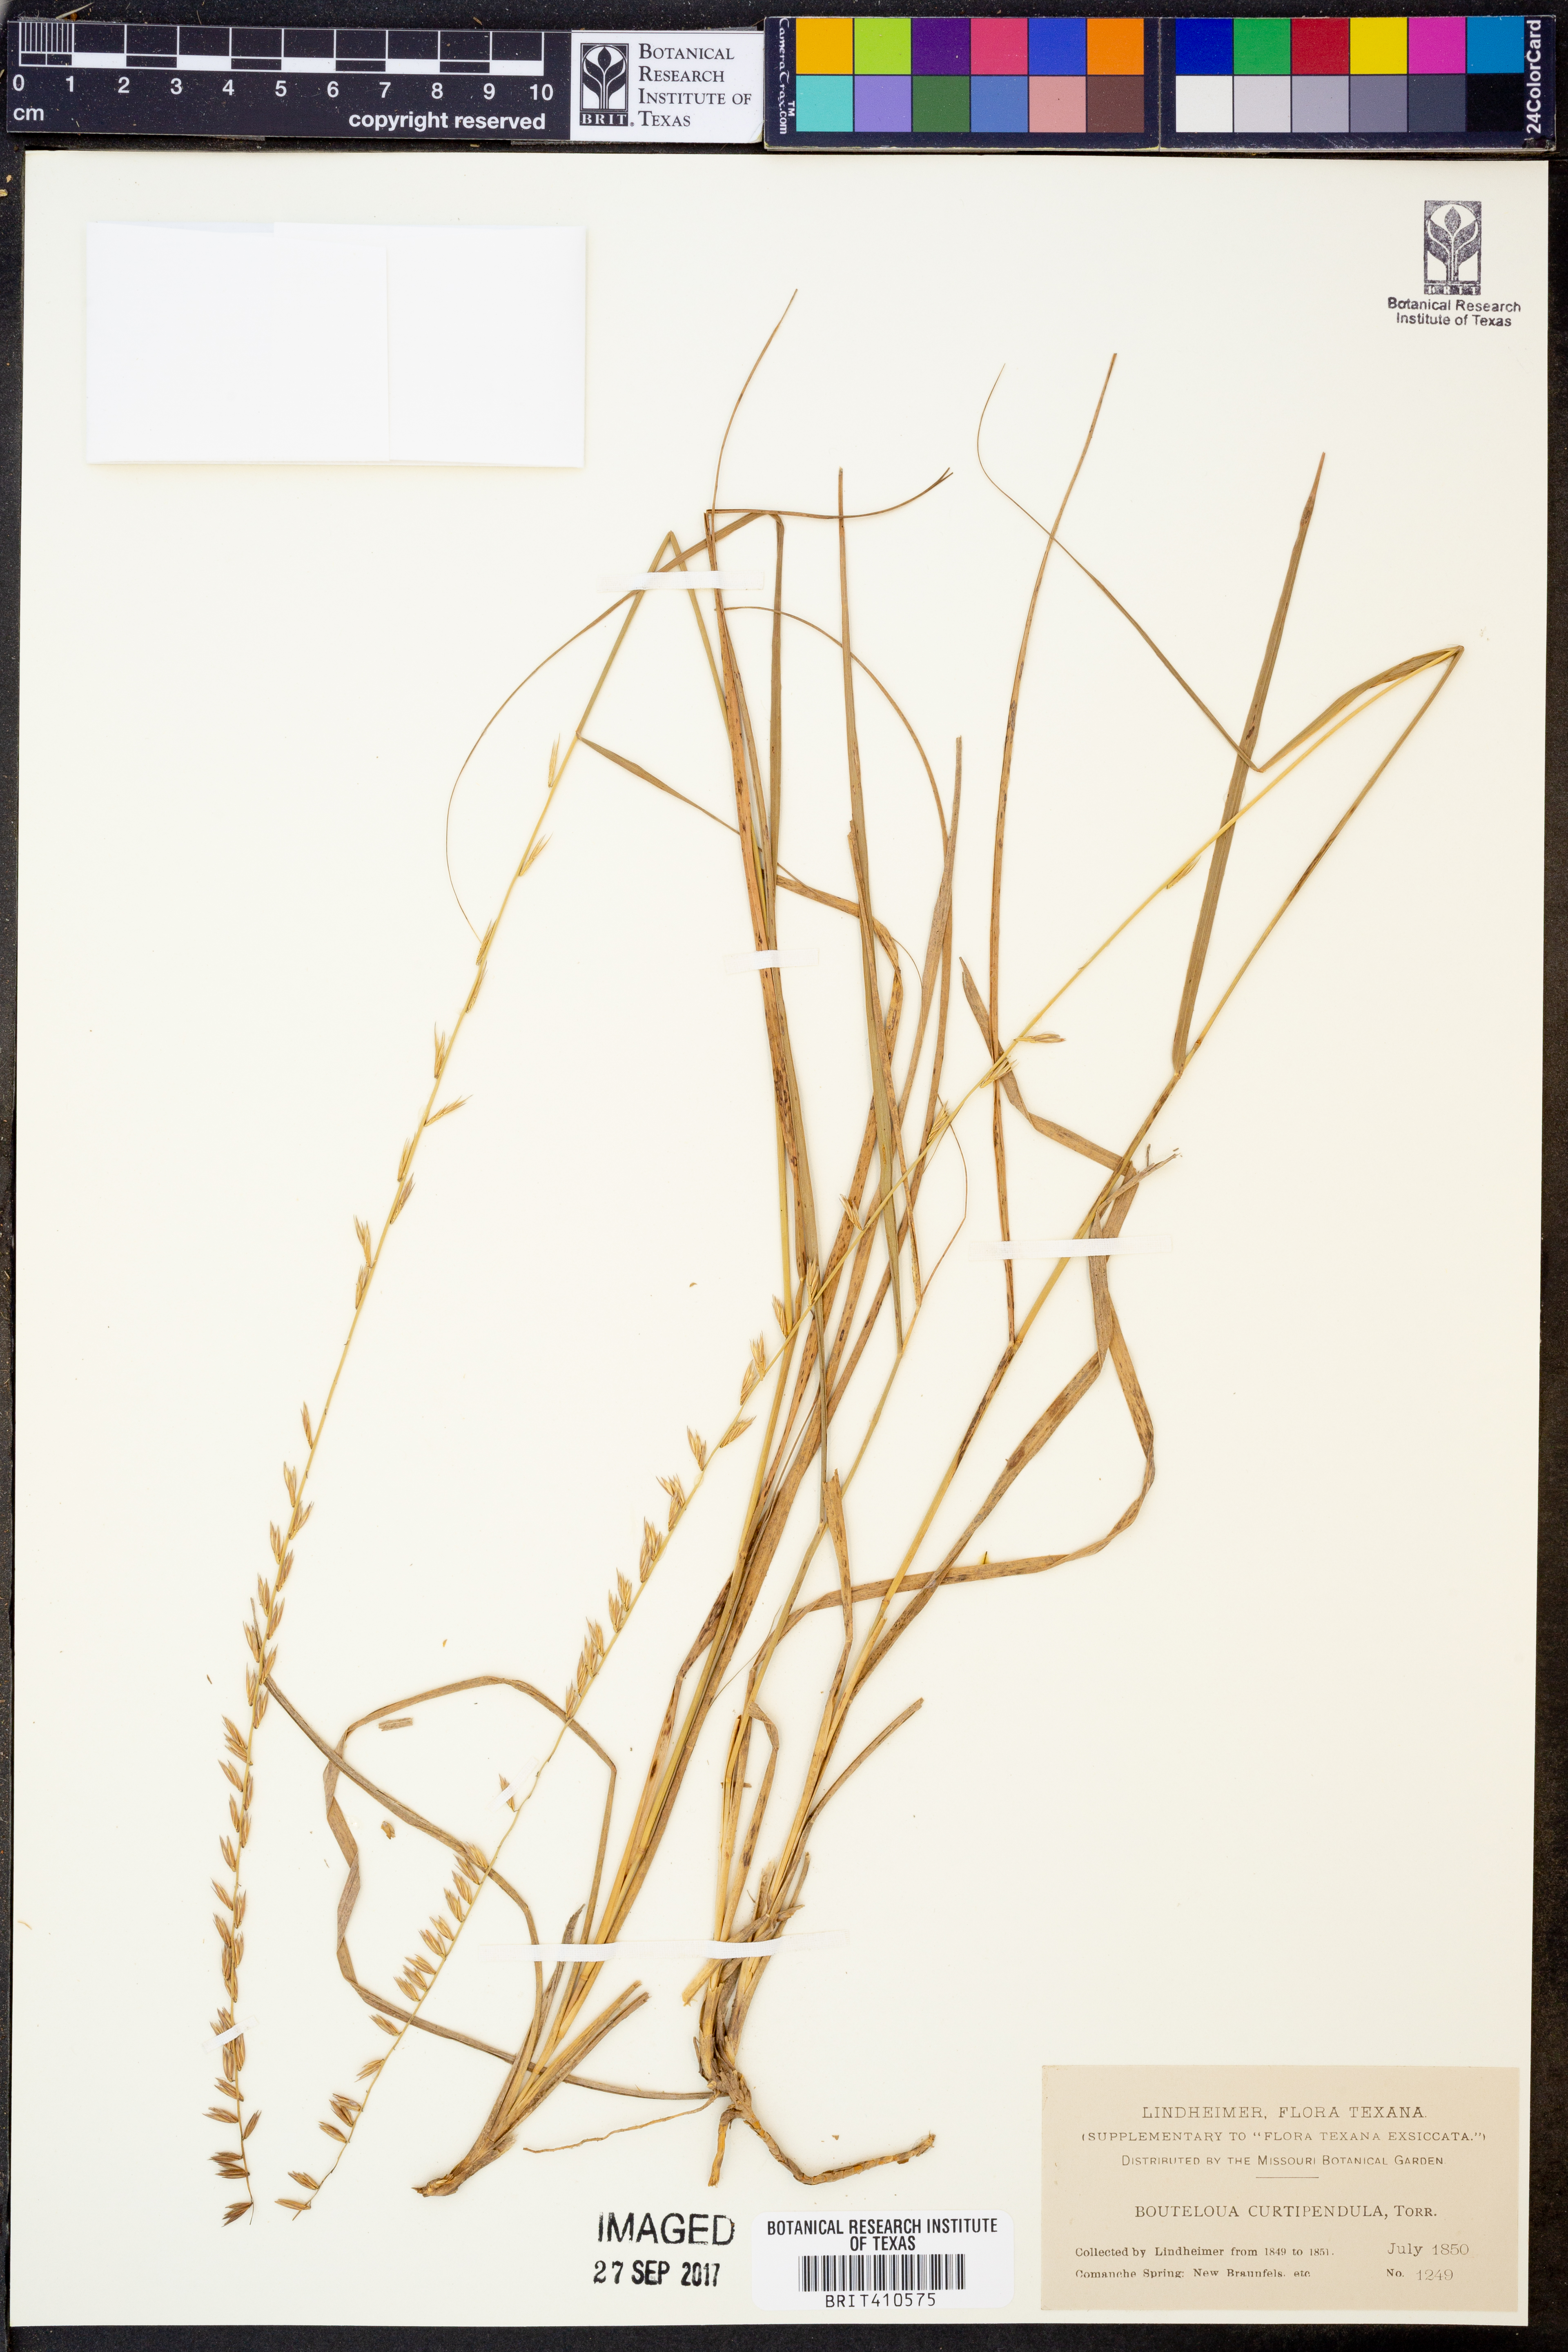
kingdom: Plantae
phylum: Tracheophyta
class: Liliopsida
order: Poales
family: Poaceae
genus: Bouteloua
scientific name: Bouteloua curtipendula
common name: Side-oats grama
